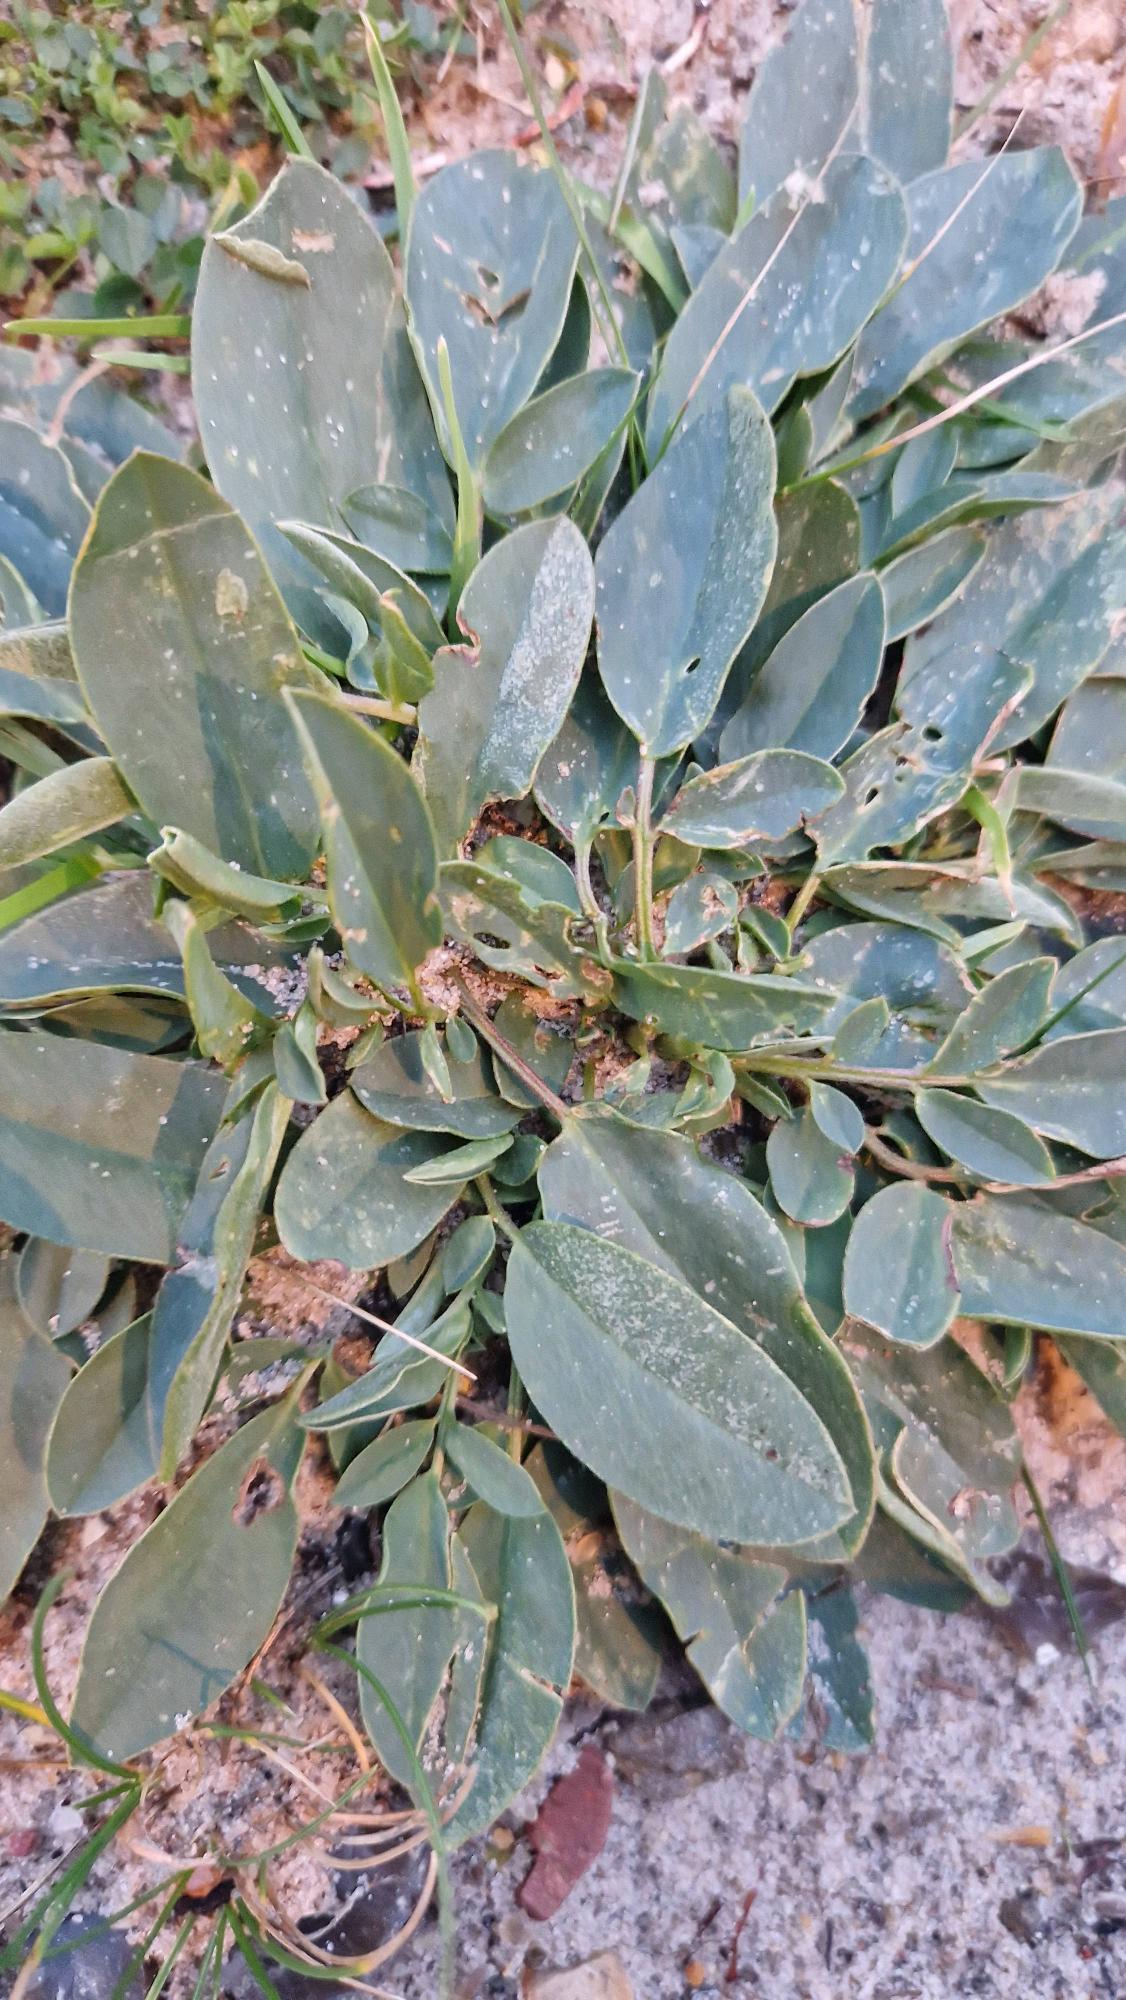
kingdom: Plantae
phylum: Tracheophyta
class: Magnoliopsida
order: Fabales
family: Fabaceae
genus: Anthyllis
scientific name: Anthyllis vulneraria
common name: Rundbælg
